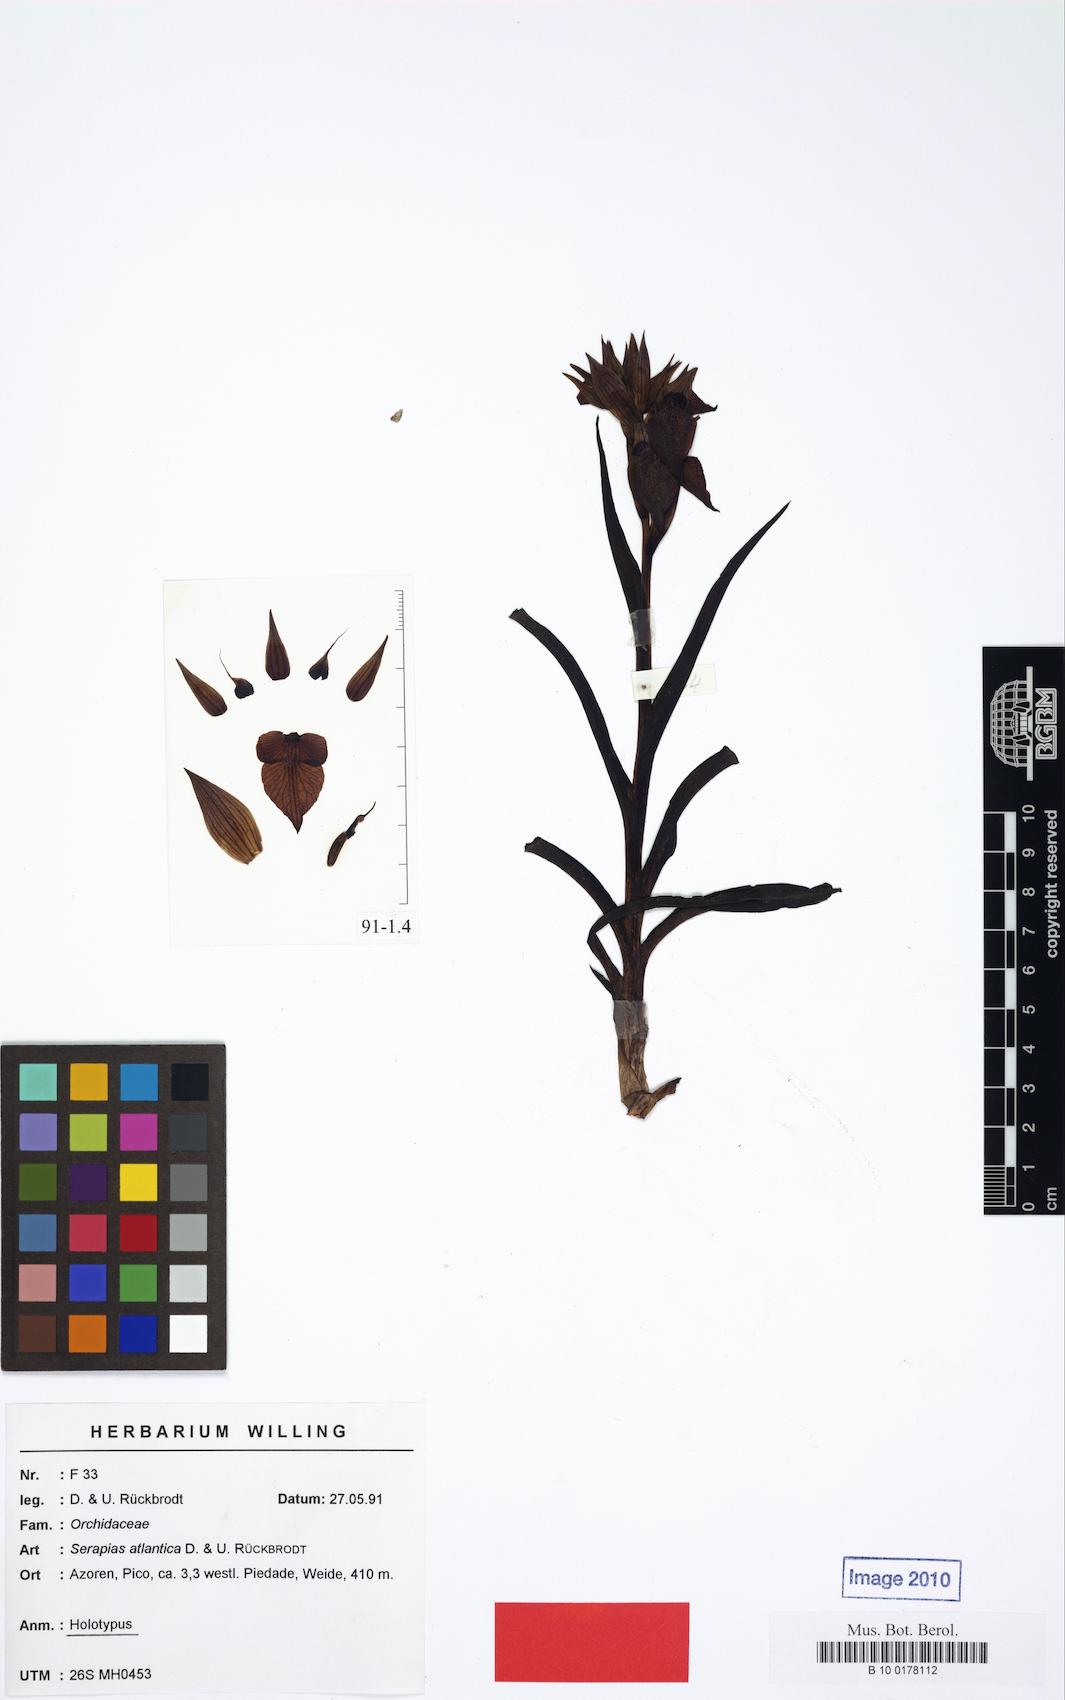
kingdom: Plantae
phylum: Tracheophyta
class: Liliopsida
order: Asparagales
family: Orchidaceae
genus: Serapias
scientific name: Serapias cordigera
